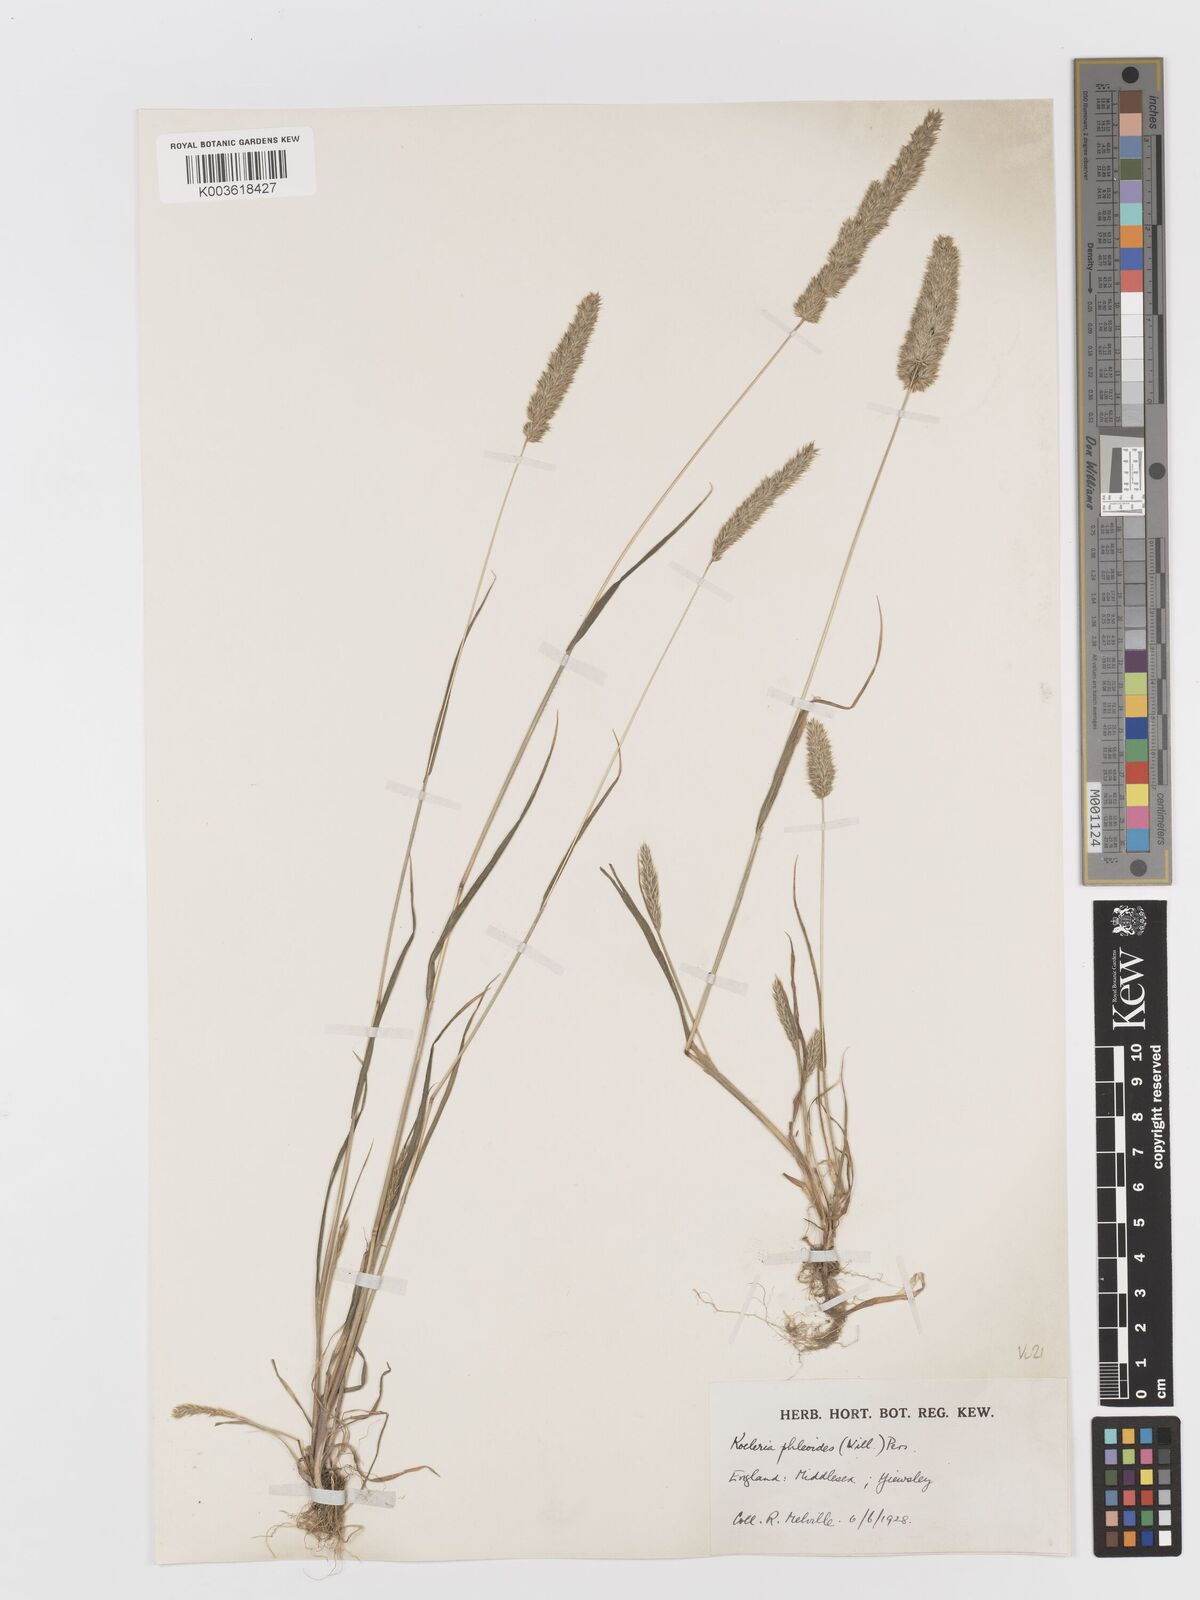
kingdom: Plantae
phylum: Tracheophyta
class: Liliopsida
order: Poales
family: Poaceae
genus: Rostraria
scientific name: Rostraria cristata
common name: Mediterranean hair-grass
